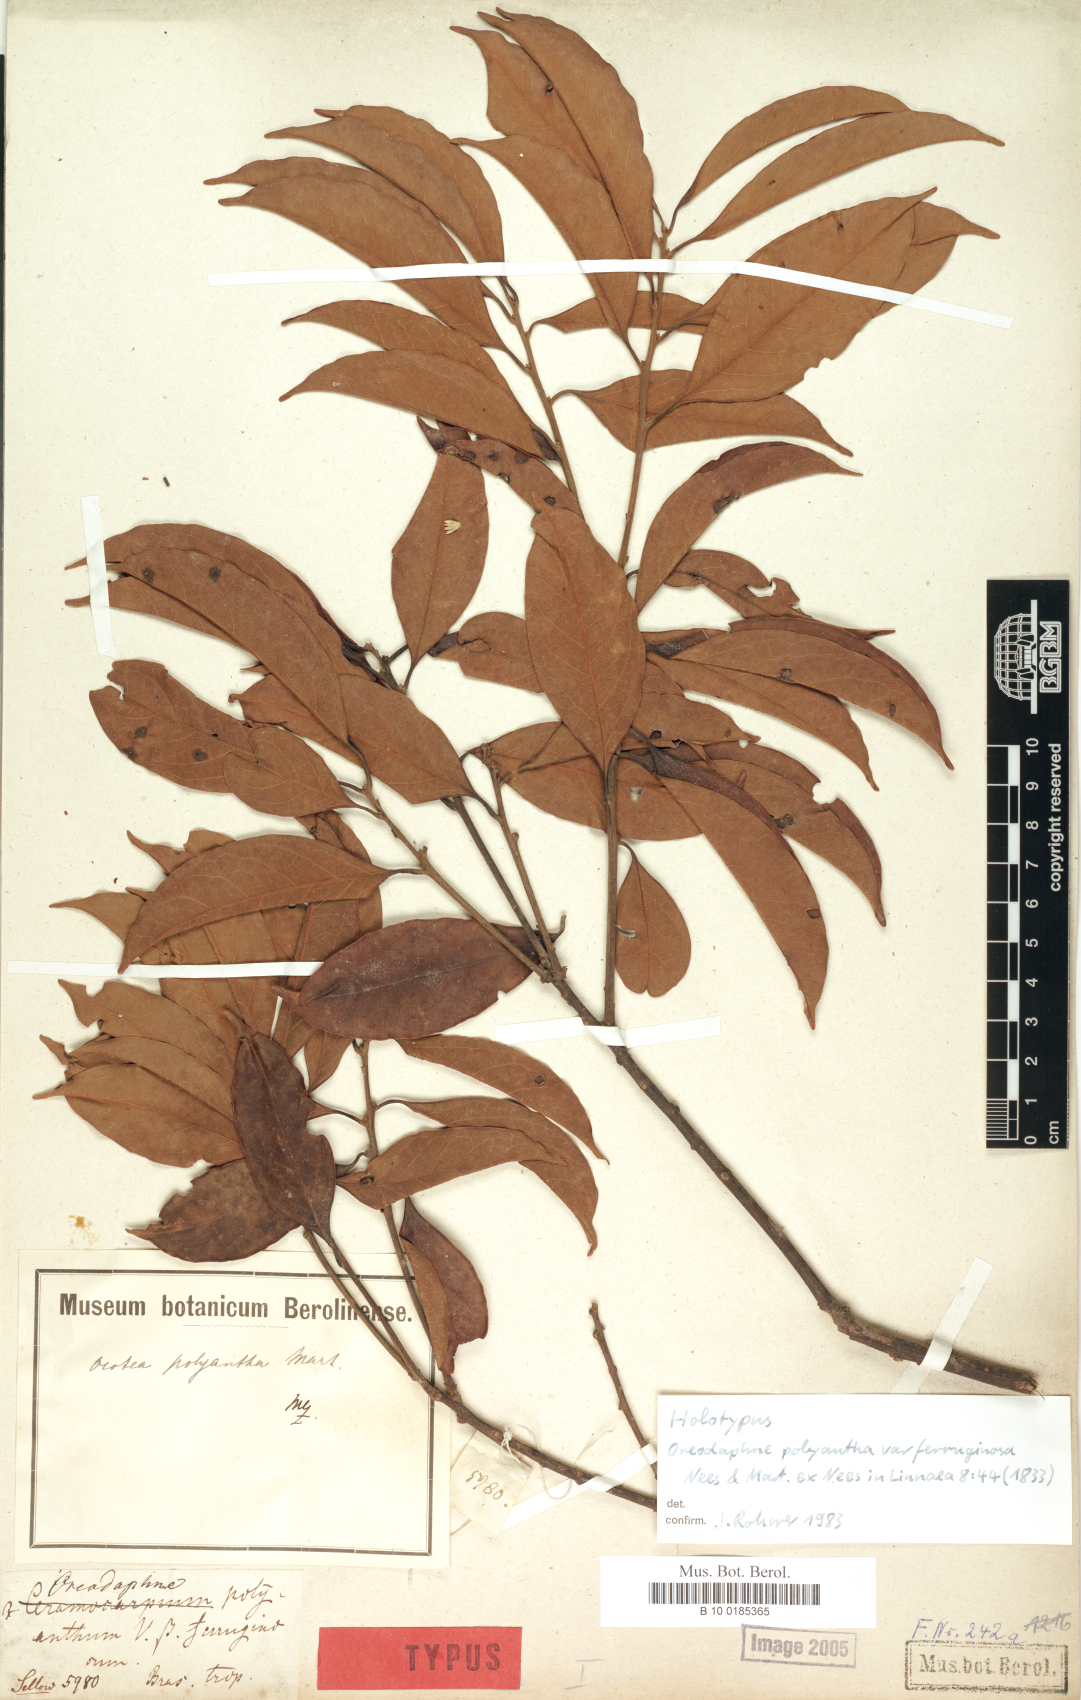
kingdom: Plantae
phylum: Tracheophyta
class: Magnoliopsida
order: Laurales
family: Lauraceae
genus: Ocotea
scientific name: Ocotea polyantha
